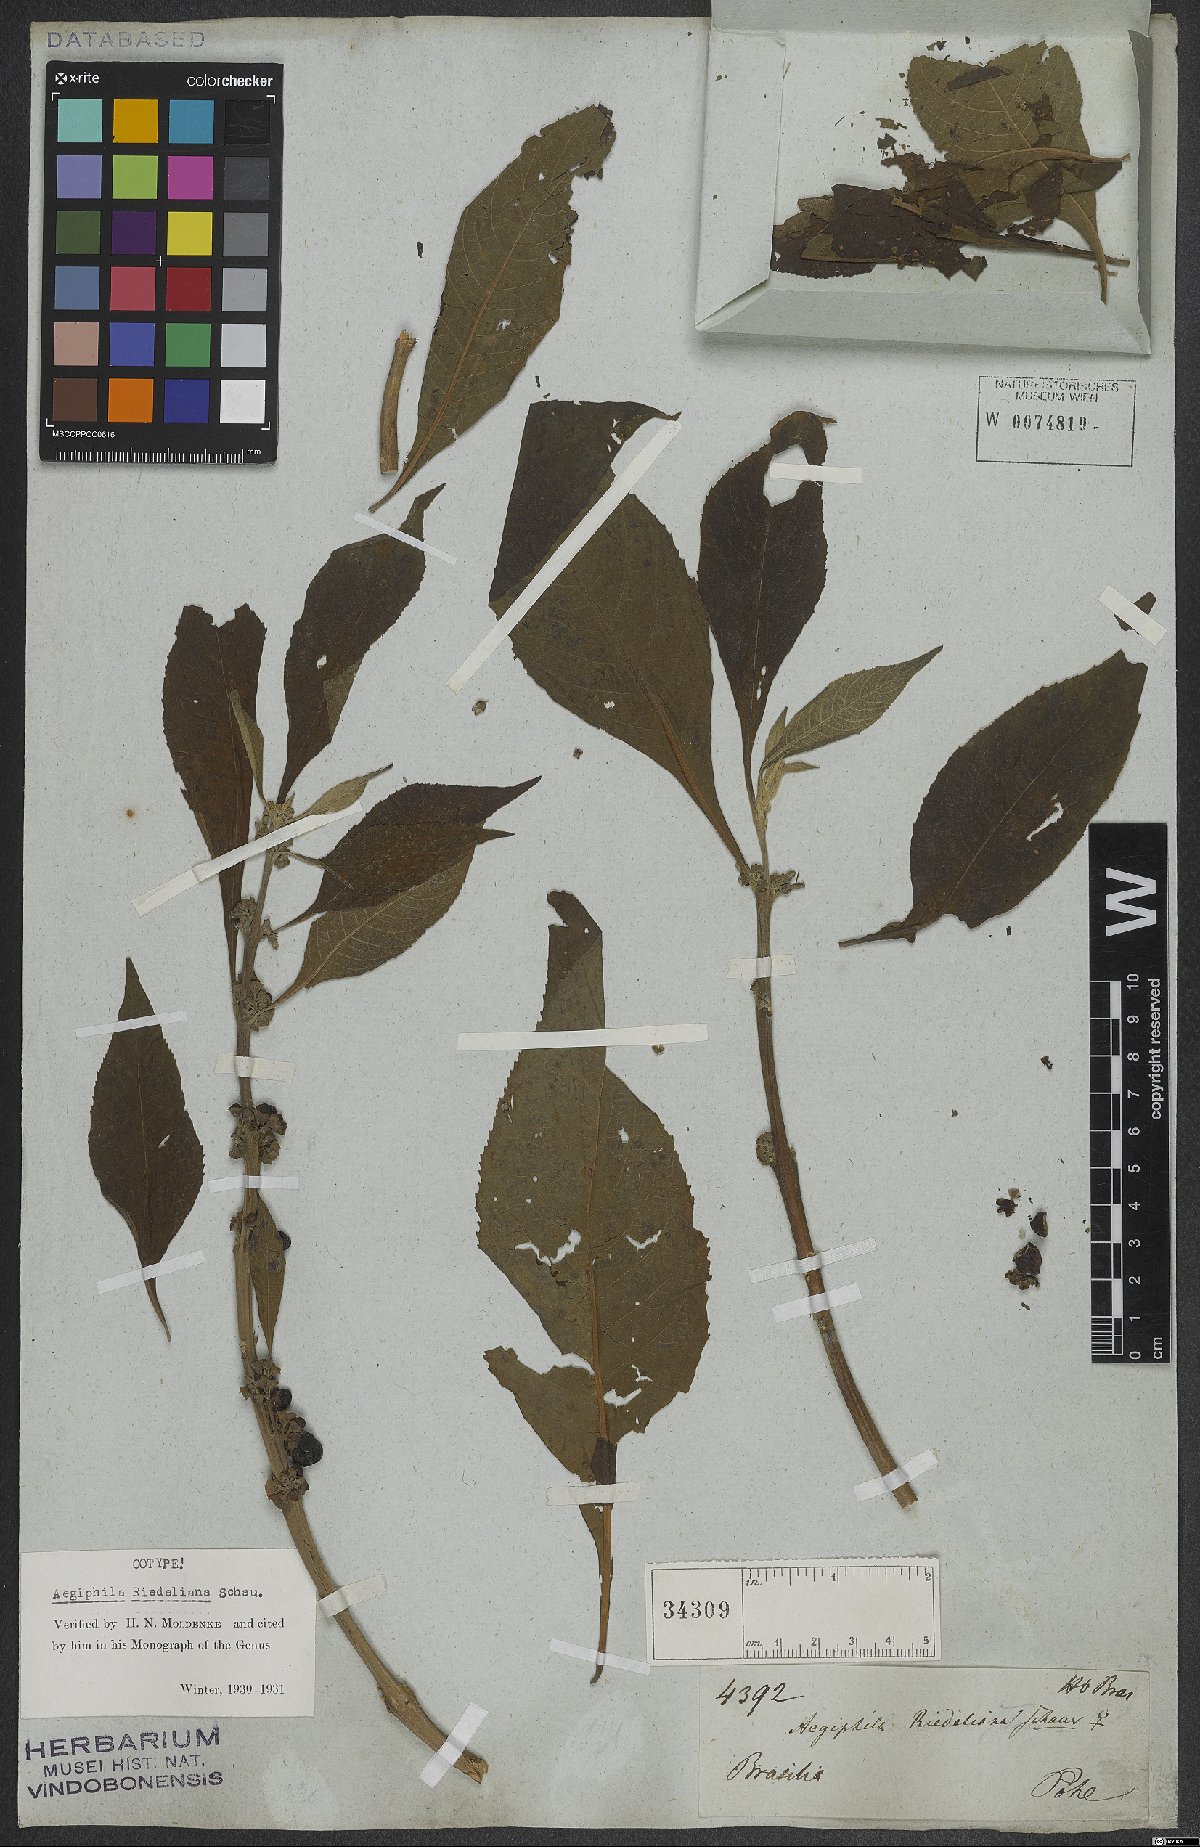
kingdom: Plantae
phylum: Tracheophyta
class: Magnoliopsida
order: Lamiales
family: Lamiaceae
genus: Aegiphila
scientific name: Aegiphila riedeliana
